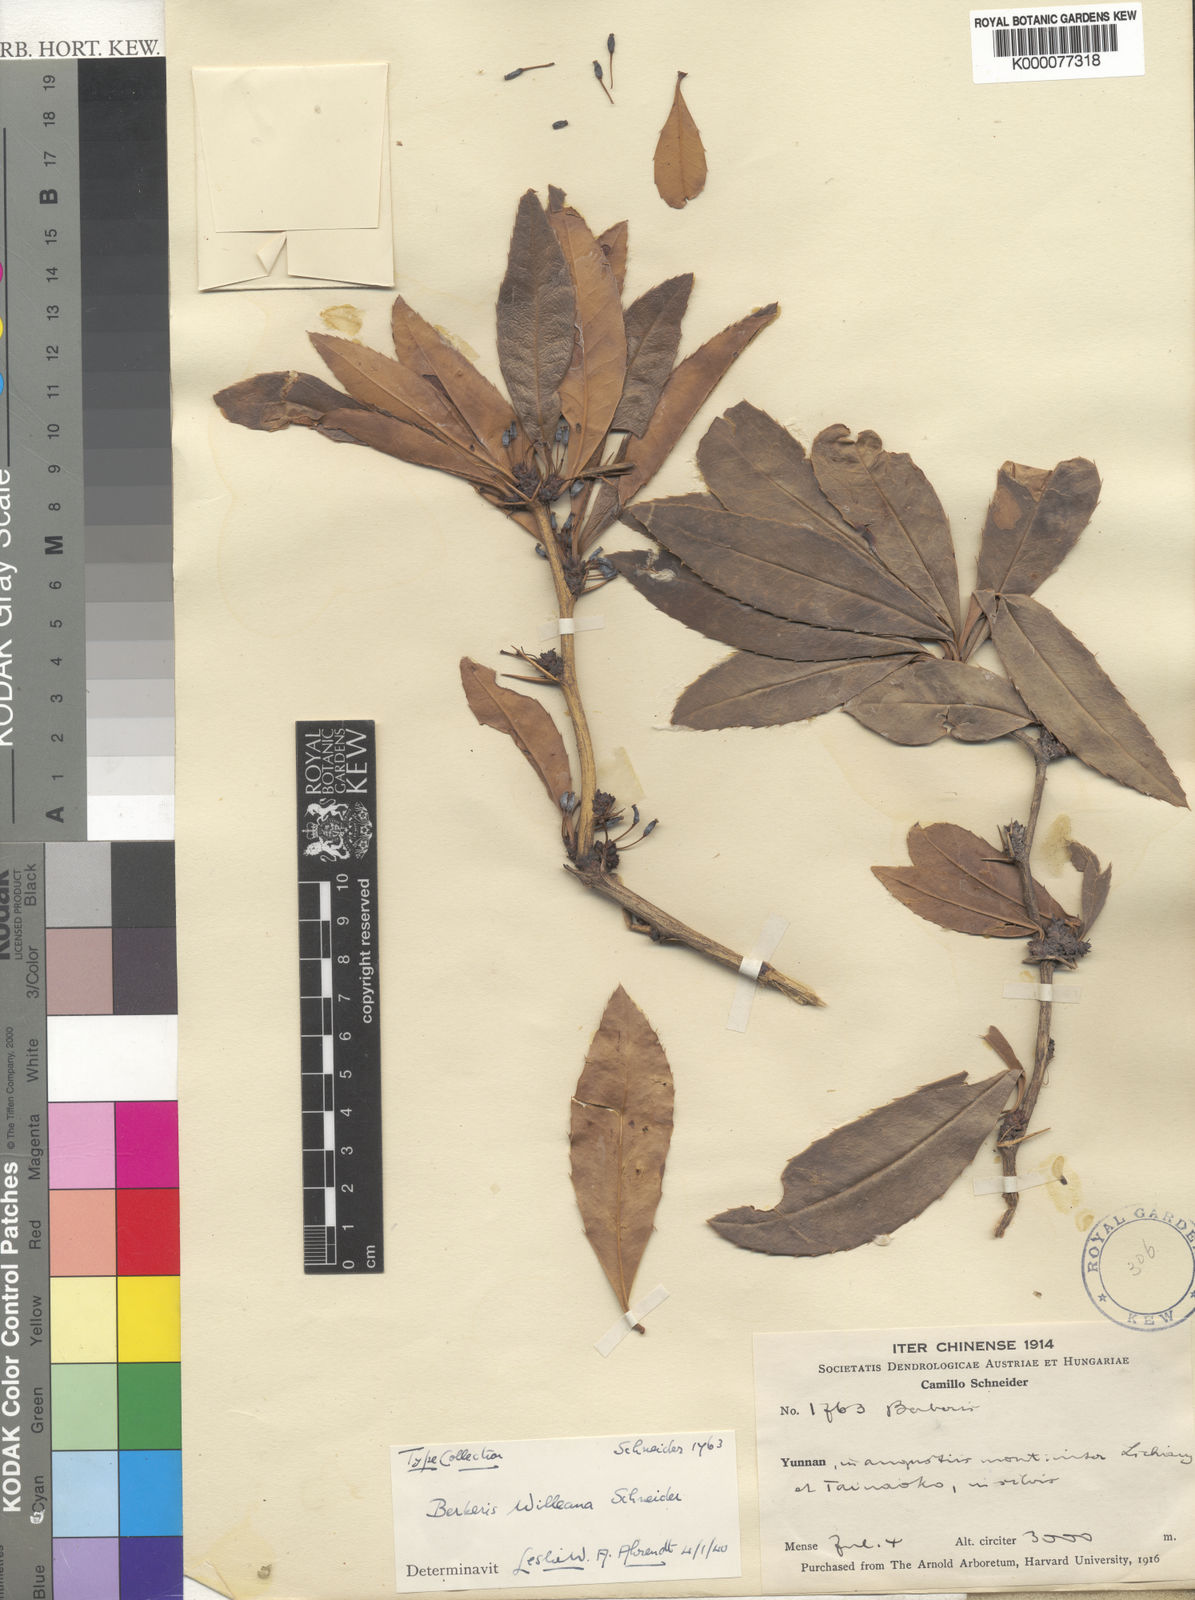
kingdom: Plantae
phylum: Tracheophyta
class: Magnoliopsida
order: Ranunculales
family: Berberidaceae
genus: Berberis
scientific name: Berberis levis
